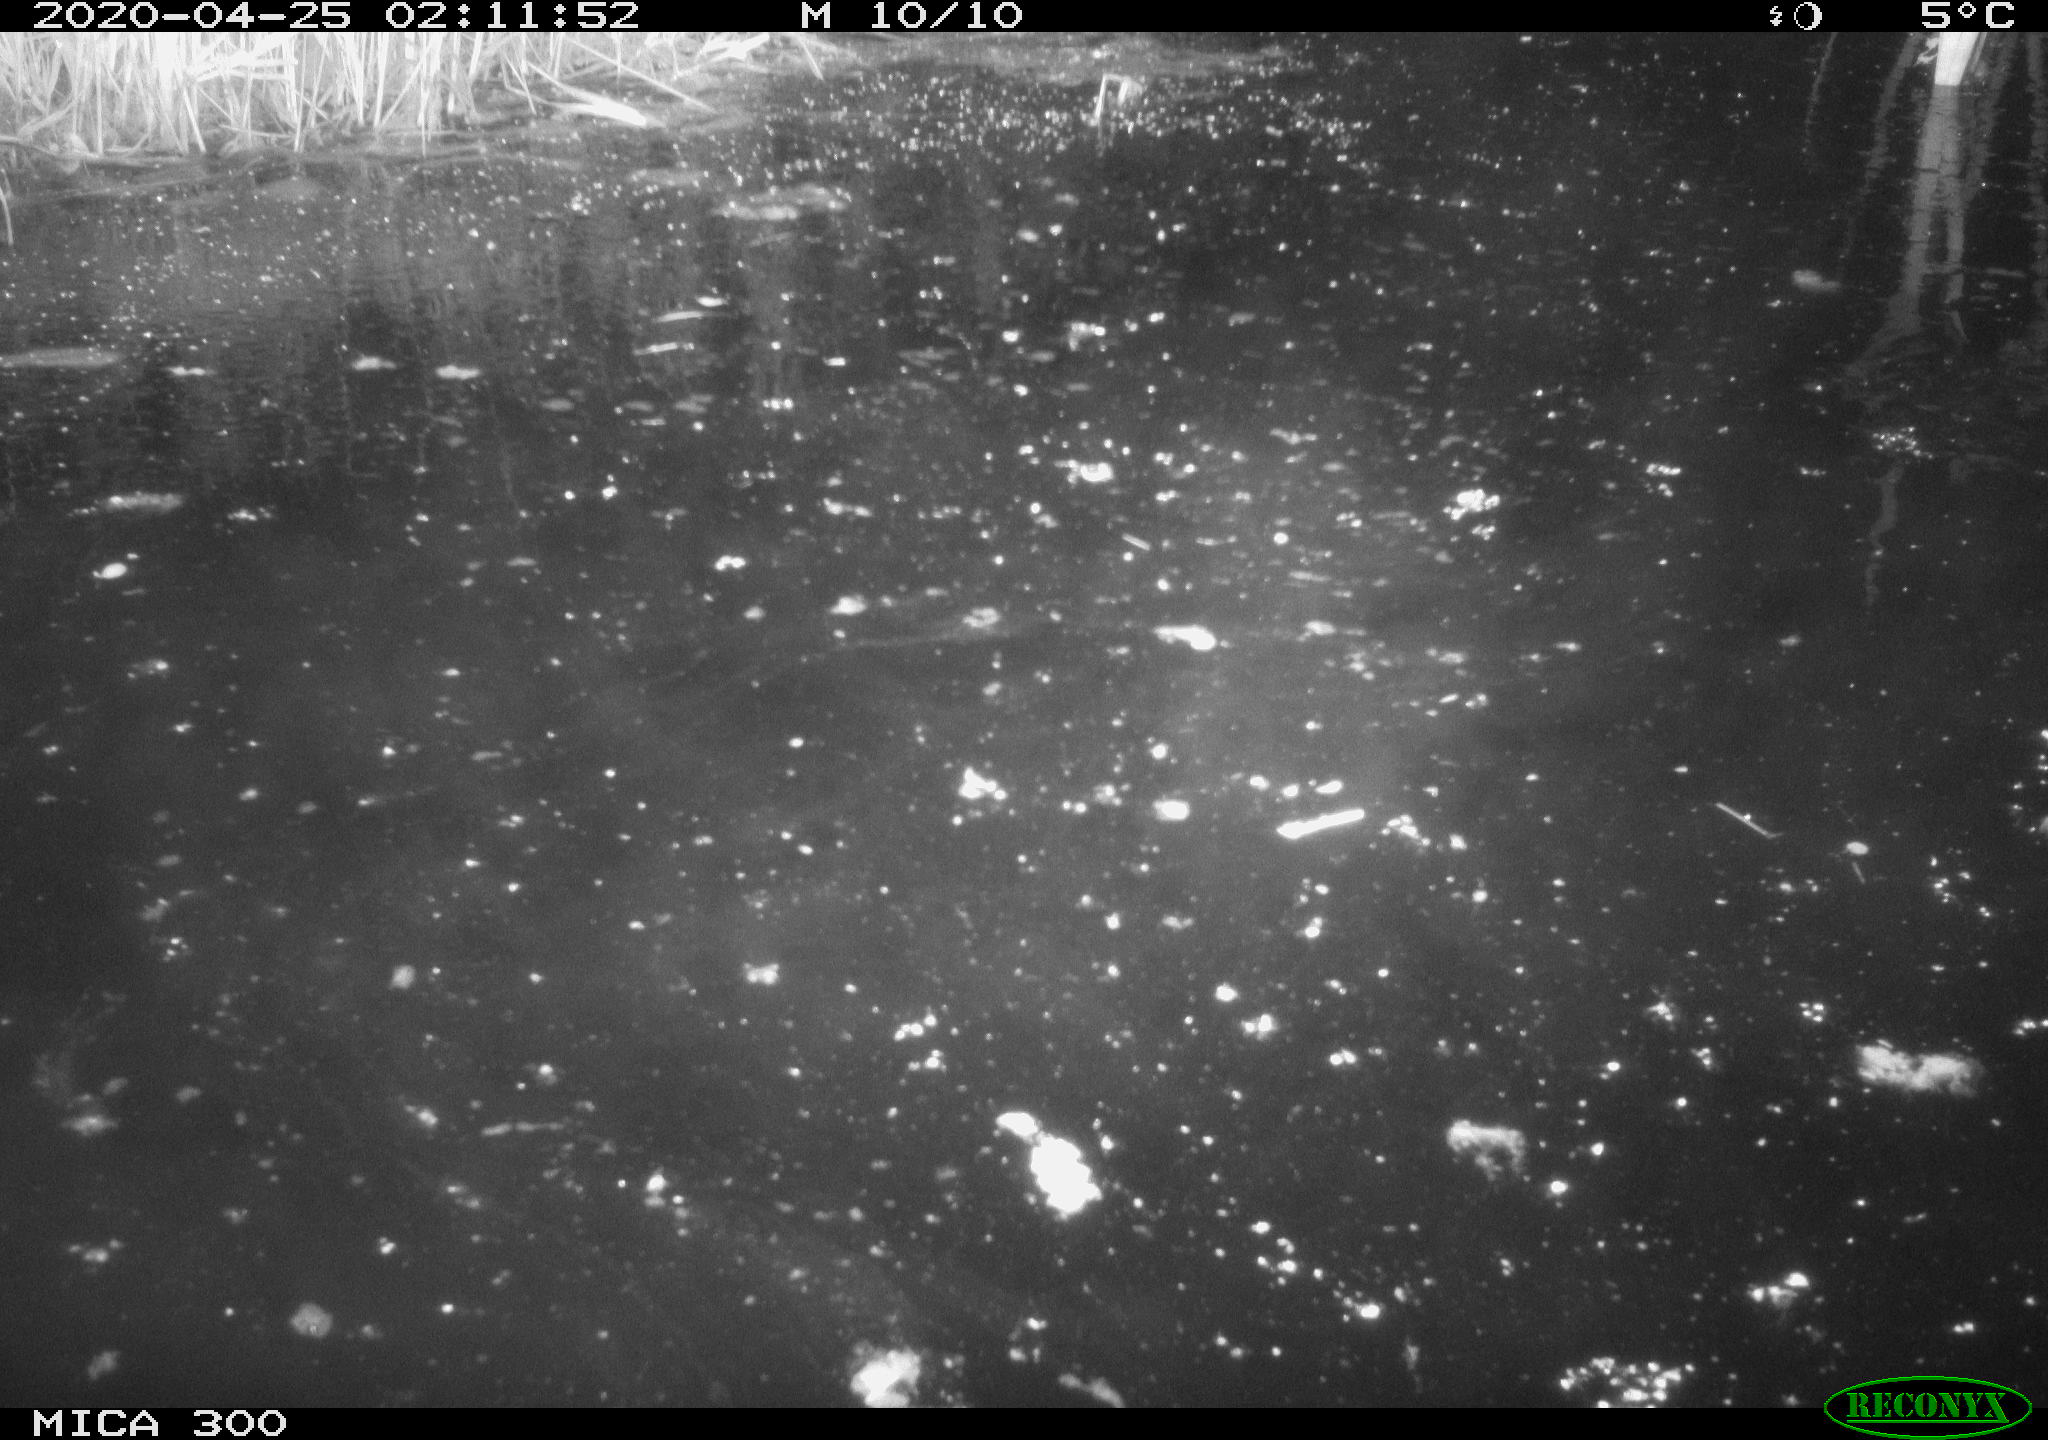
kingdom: Animalia
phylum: Chordata
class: Mammalia
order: Rodentia
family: Castoridae
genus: Castor
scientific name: Castor fiber
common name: Eurasian beaver
